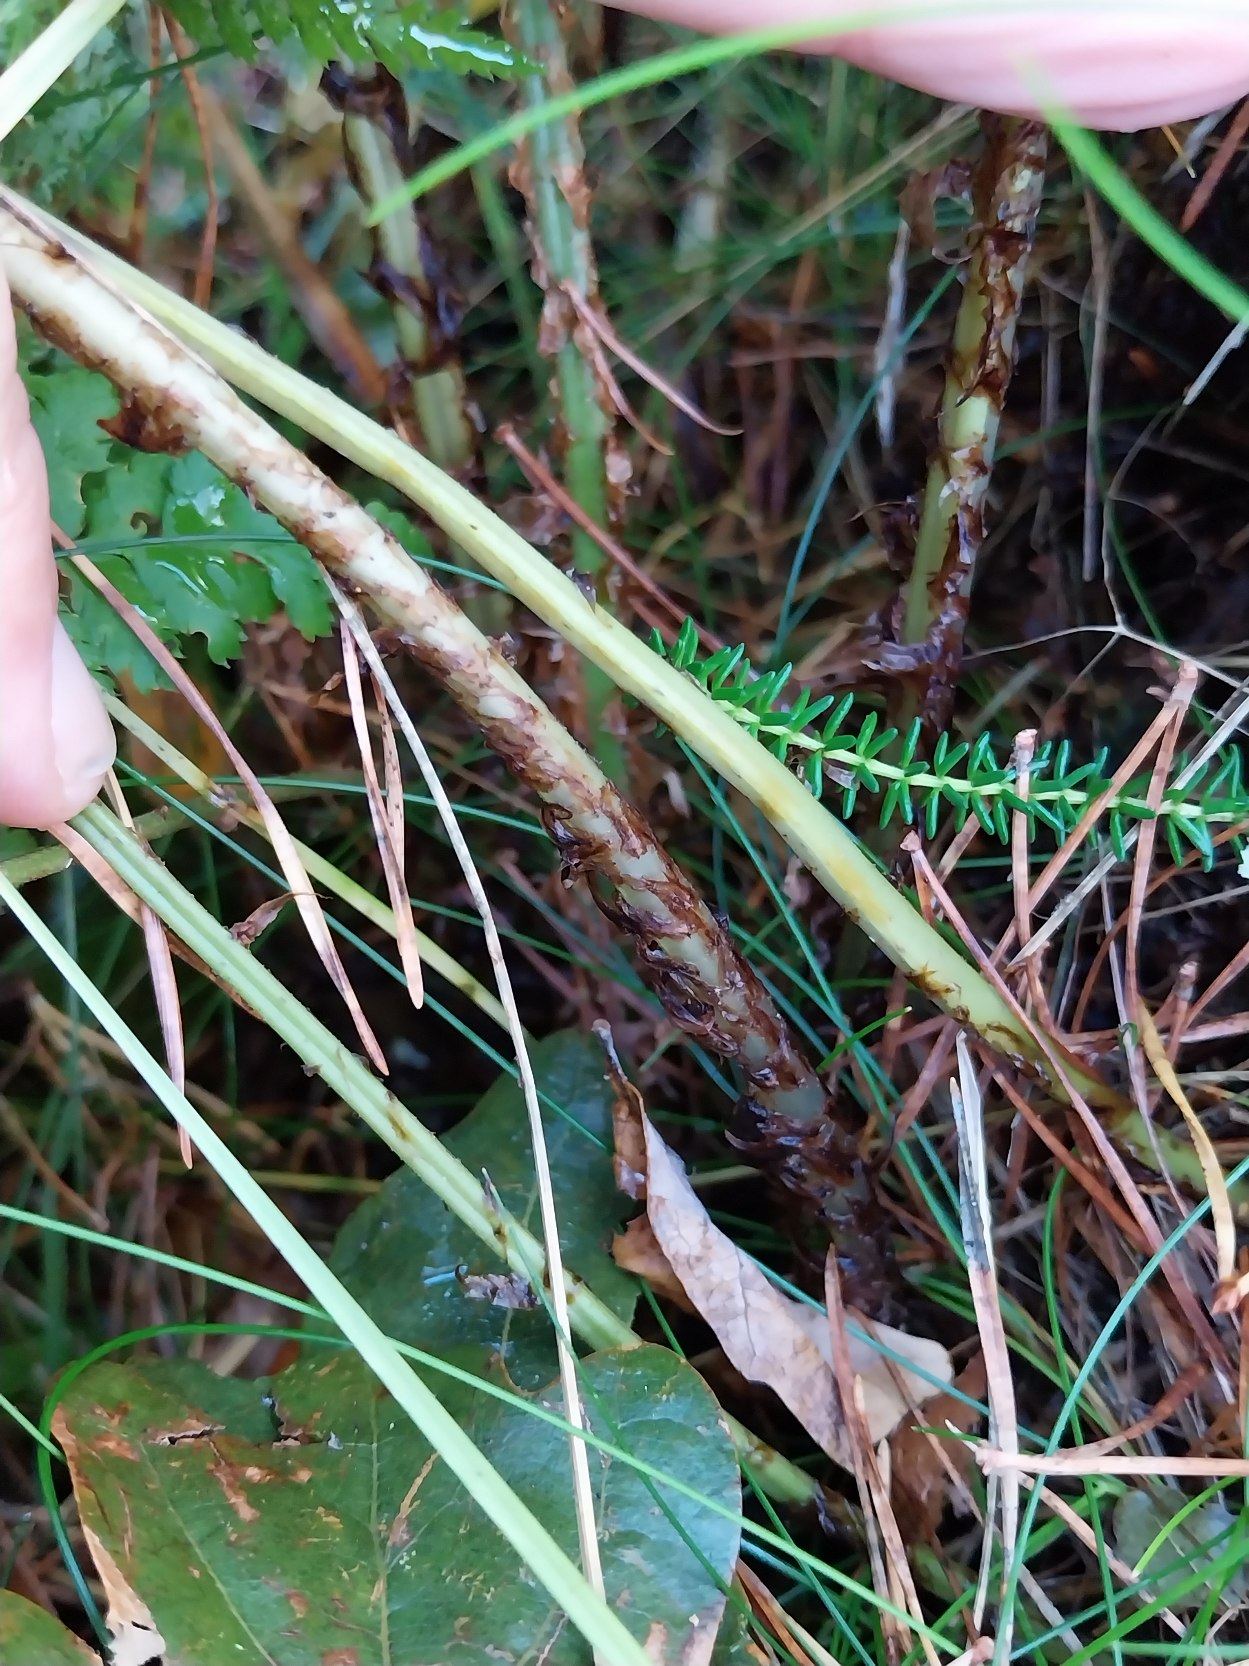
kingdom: Plantae
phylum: Tracheophyta
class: Polypodiopsida
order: Polypodiales
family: Dryopteridaceae
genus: Dryopteris
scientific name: Dryopteris dilatata
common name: Bredbladet mangeløv
